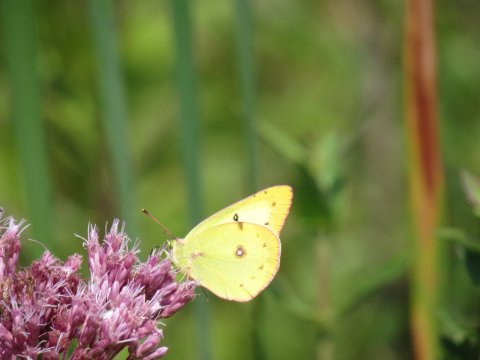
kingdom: Animalia
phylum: Arthropoda
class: Insecta
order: Lepidoptera
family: Pieridae
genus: Colias
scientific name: Colias philodice
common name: Clouded Sulphur
